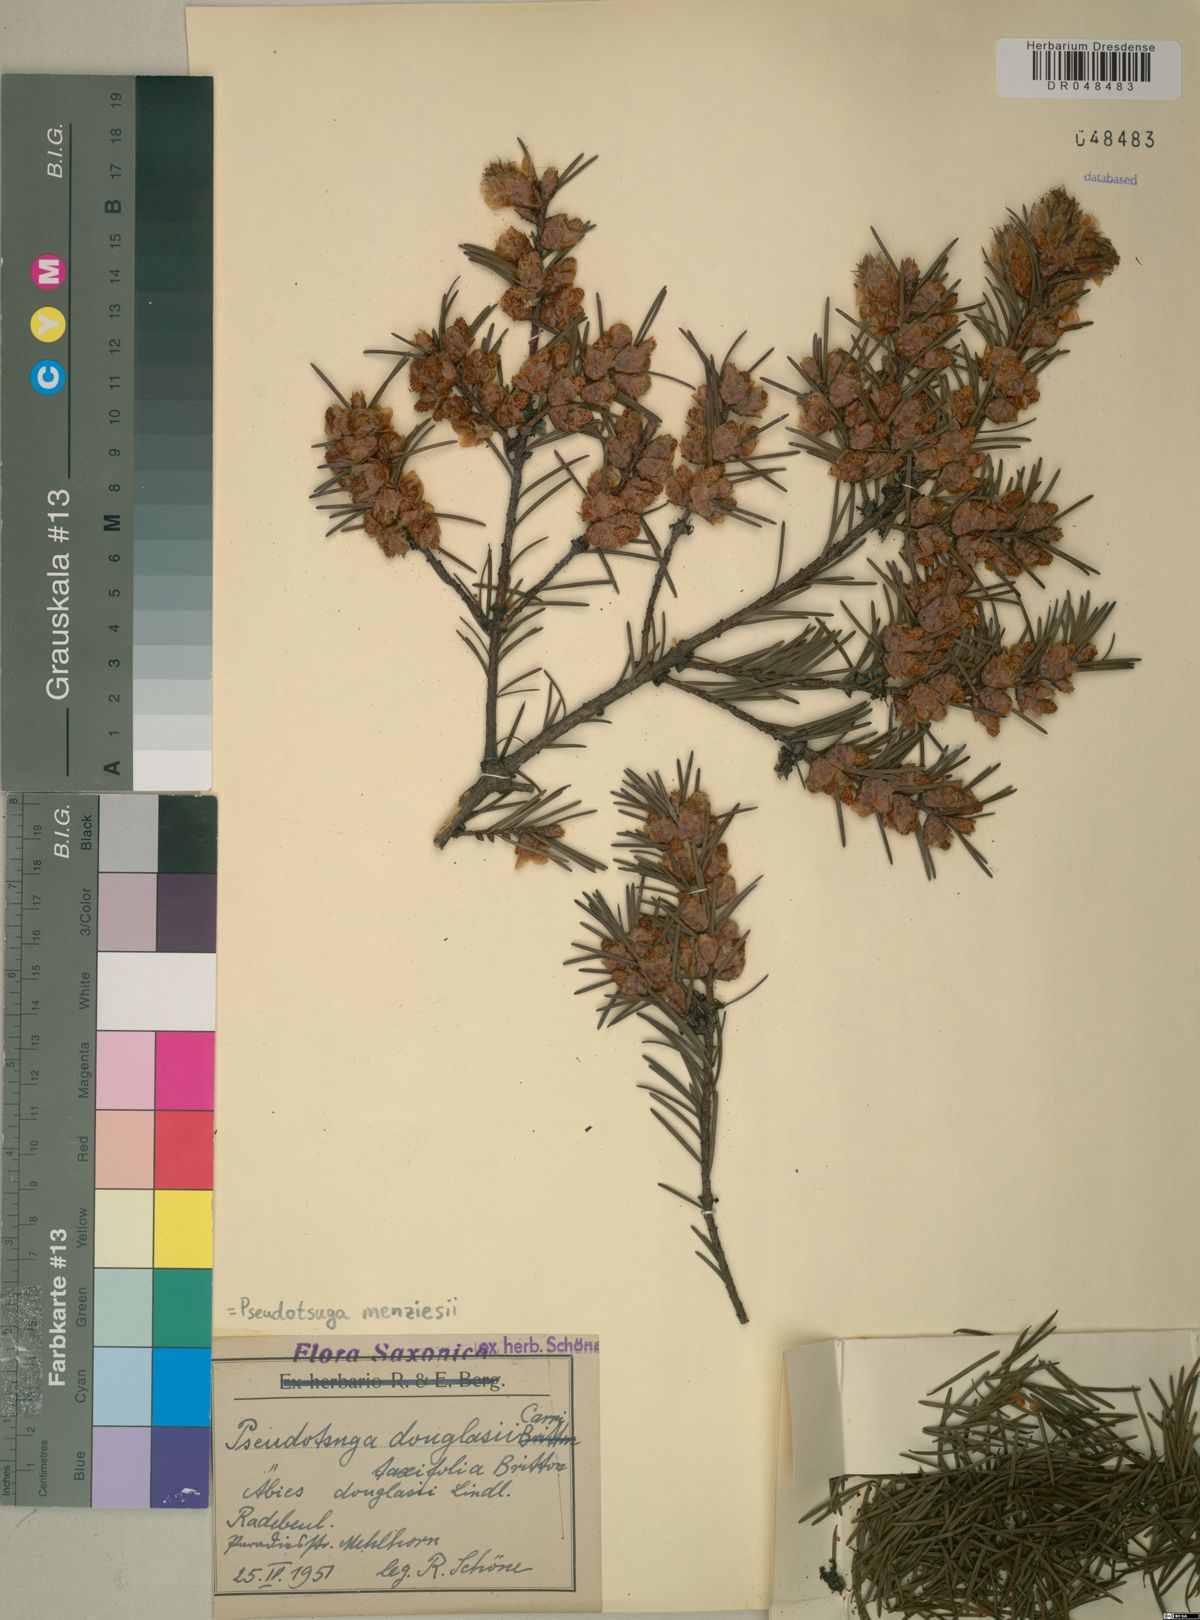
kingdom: Plantae
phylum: Tracheophyta
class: Pinopsida
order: Pinales
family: Pinaceae
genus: Pseudotsuga
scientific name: Pseudotsuga menziesii
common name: Douglas fir
